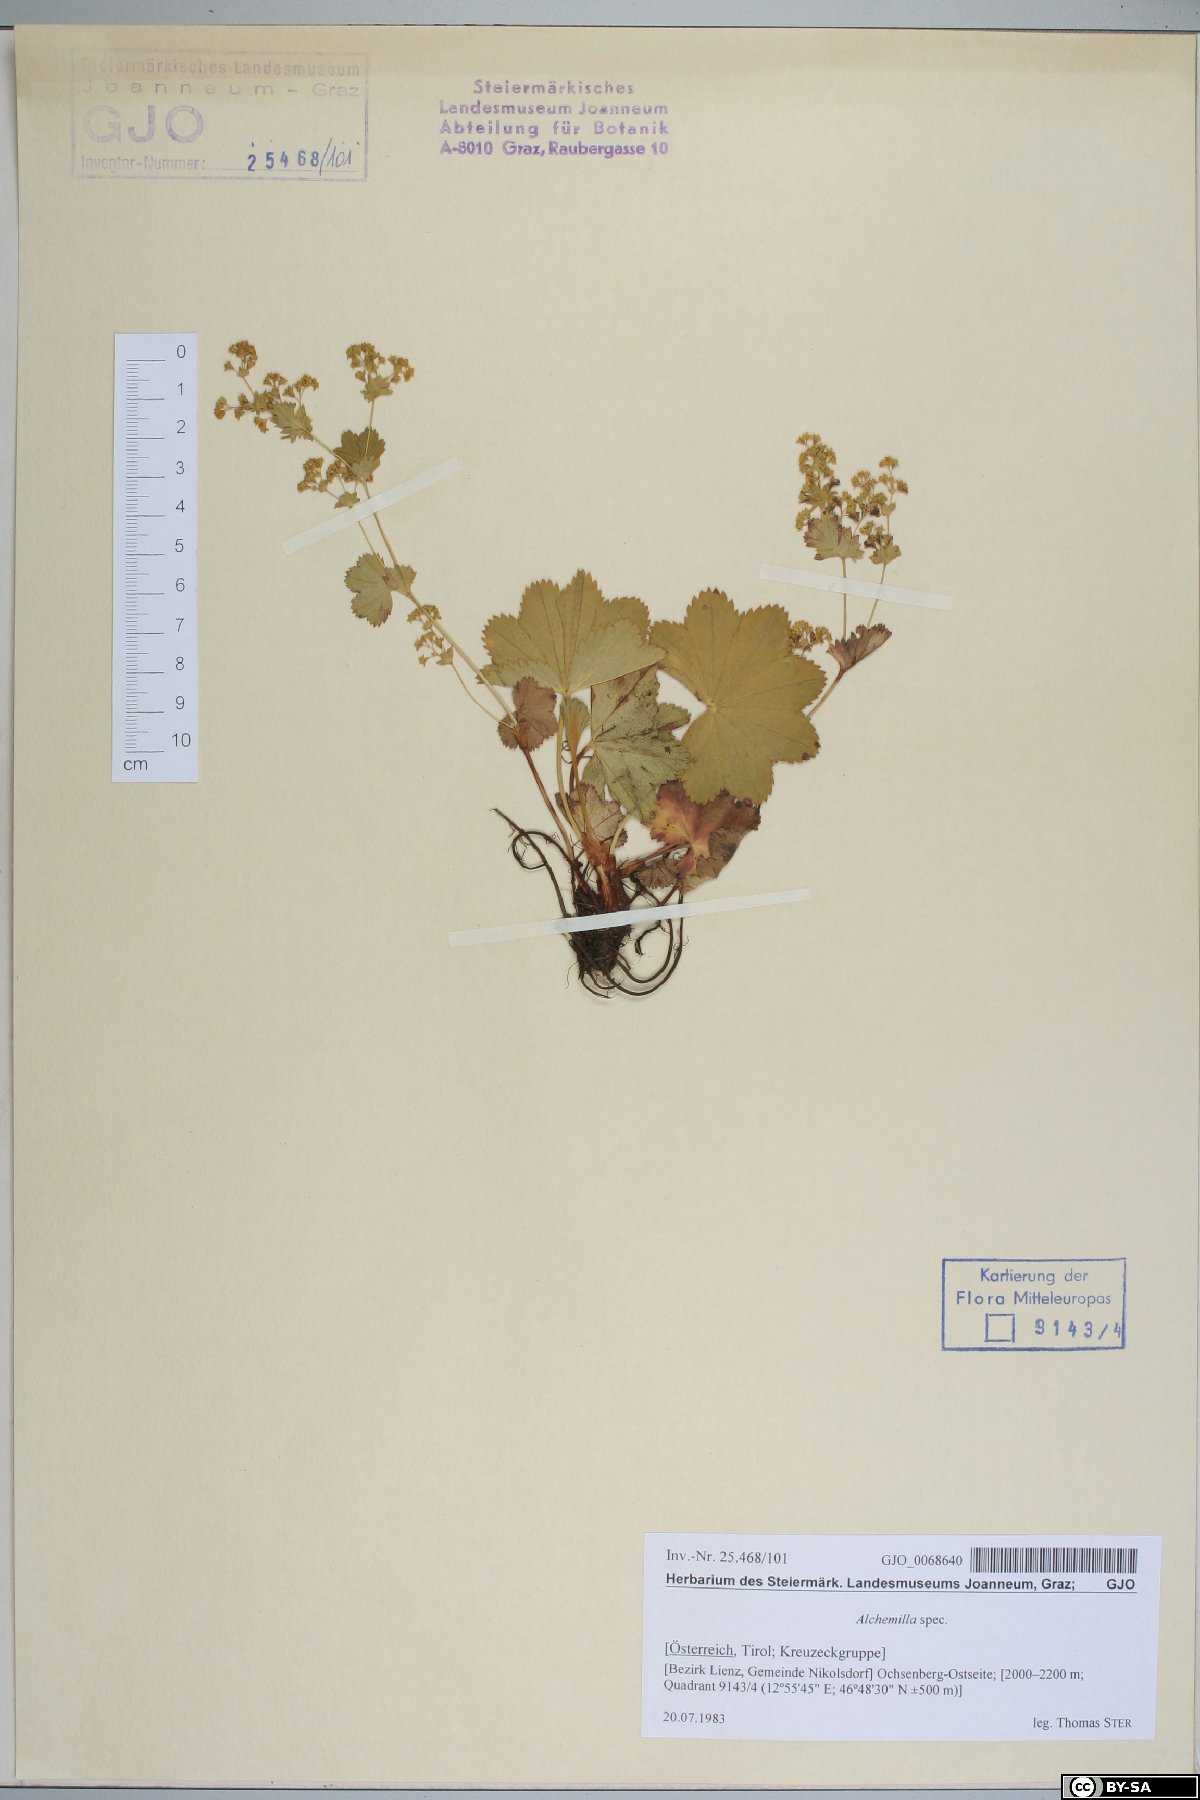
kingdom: Plantae
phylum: Tracheophyta
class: Magnoliopsida
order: Rosales
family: Rosaceae
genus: Alchemilla
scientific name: Alchemilla
